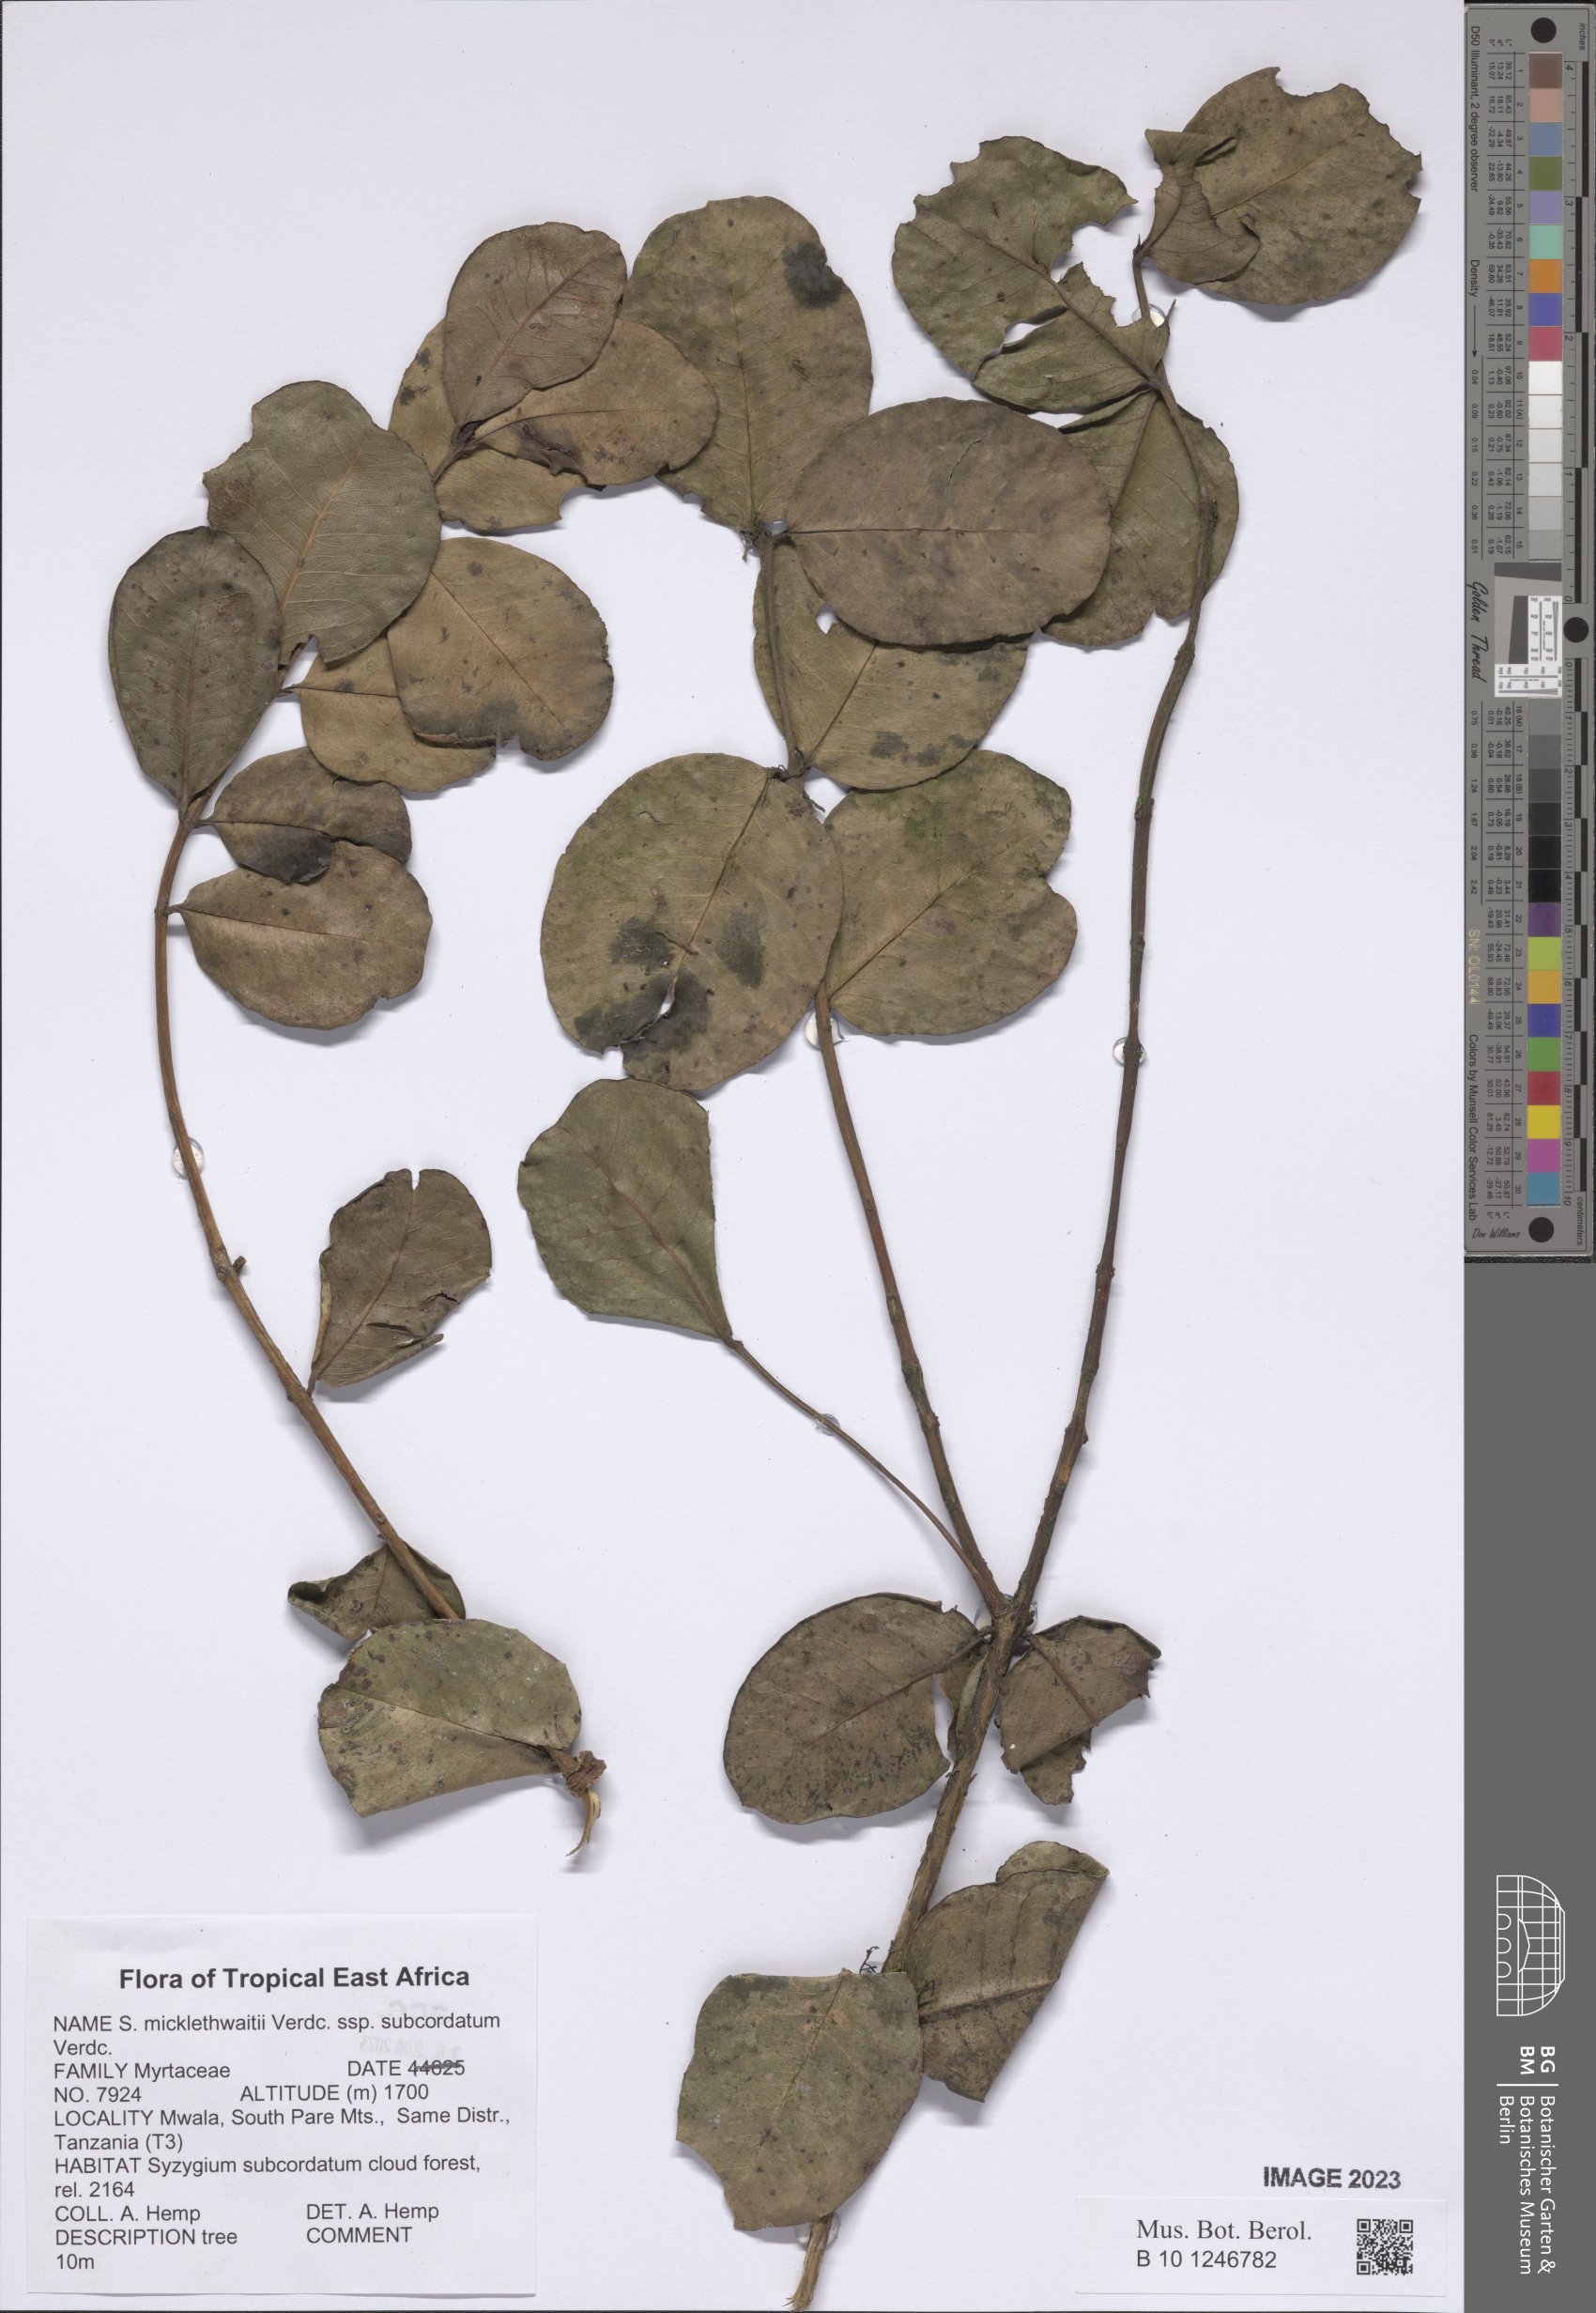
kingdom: Plantae
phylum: Tracheophyta
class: Magnoliopsida
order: Myrtales
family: Myrtaceae
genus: Syzygium
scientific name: Syzygium subcordatum
